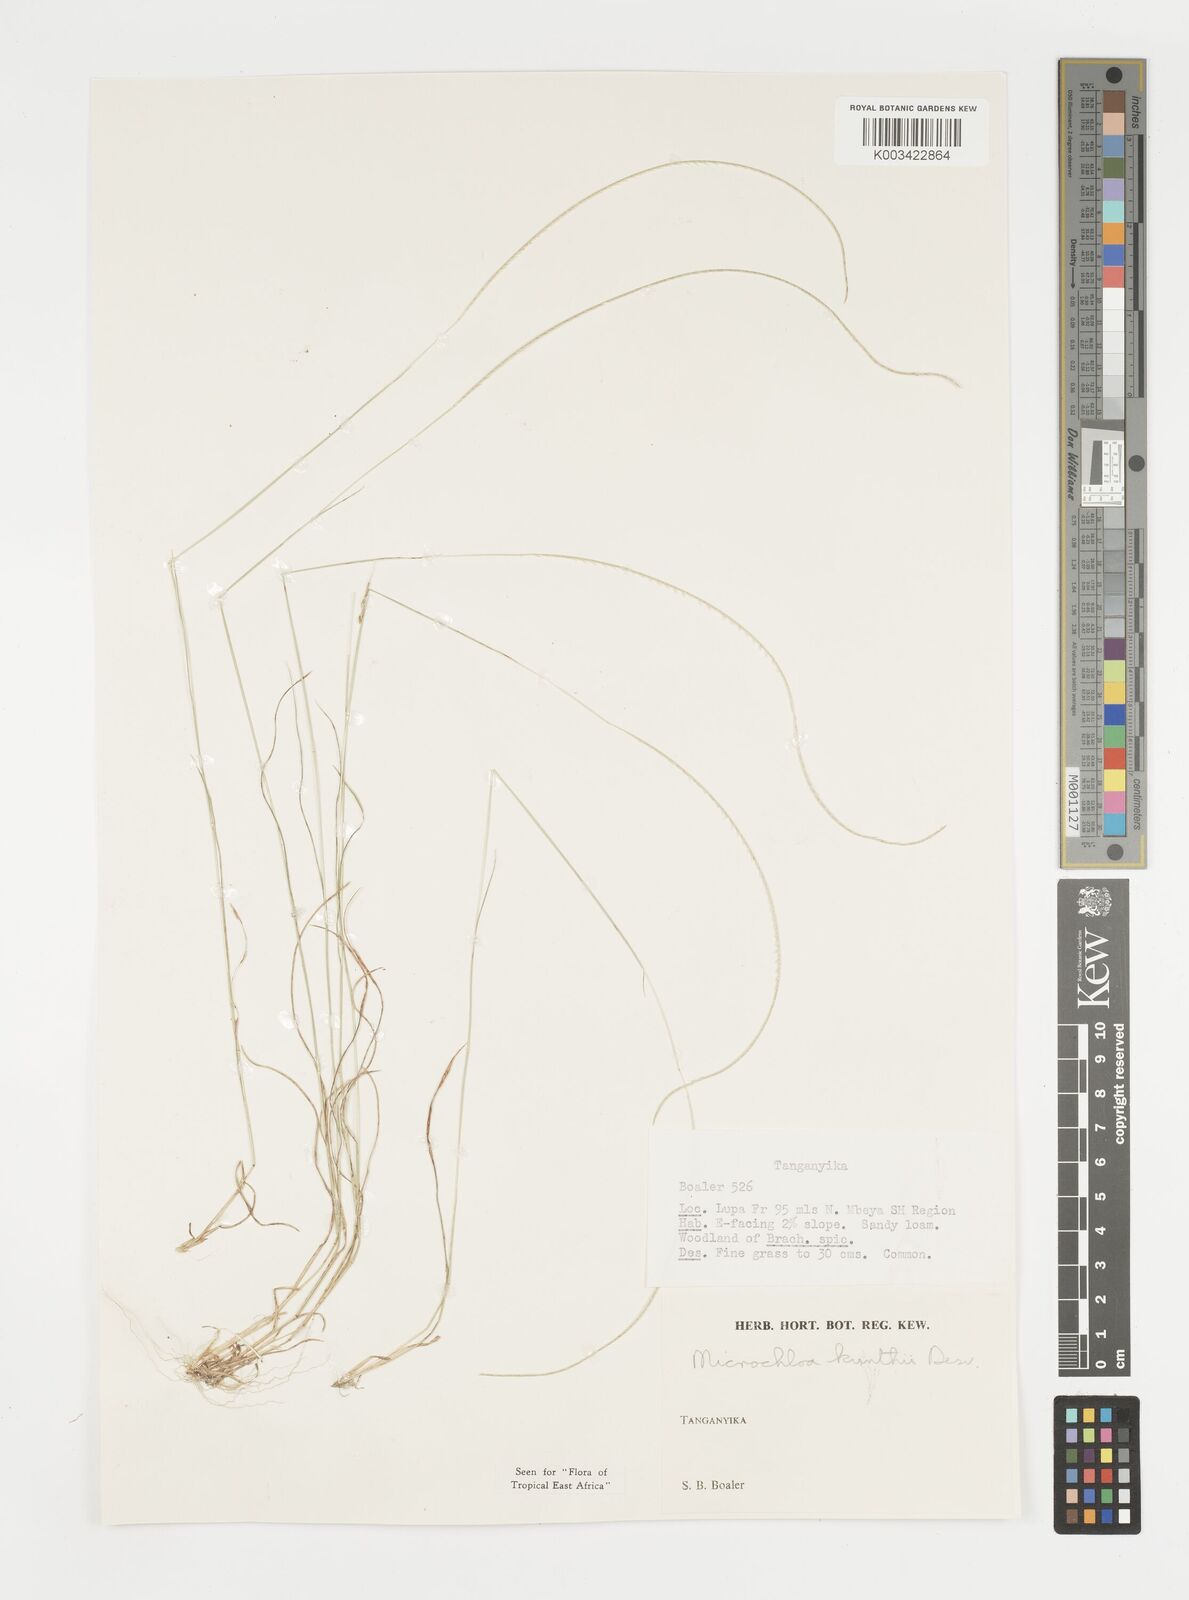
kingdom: Plantae
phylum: Tracheophyta
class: Liliopsida
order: Poales
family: Poaceae
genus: Microchloa
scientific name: Microchloa kunthii
